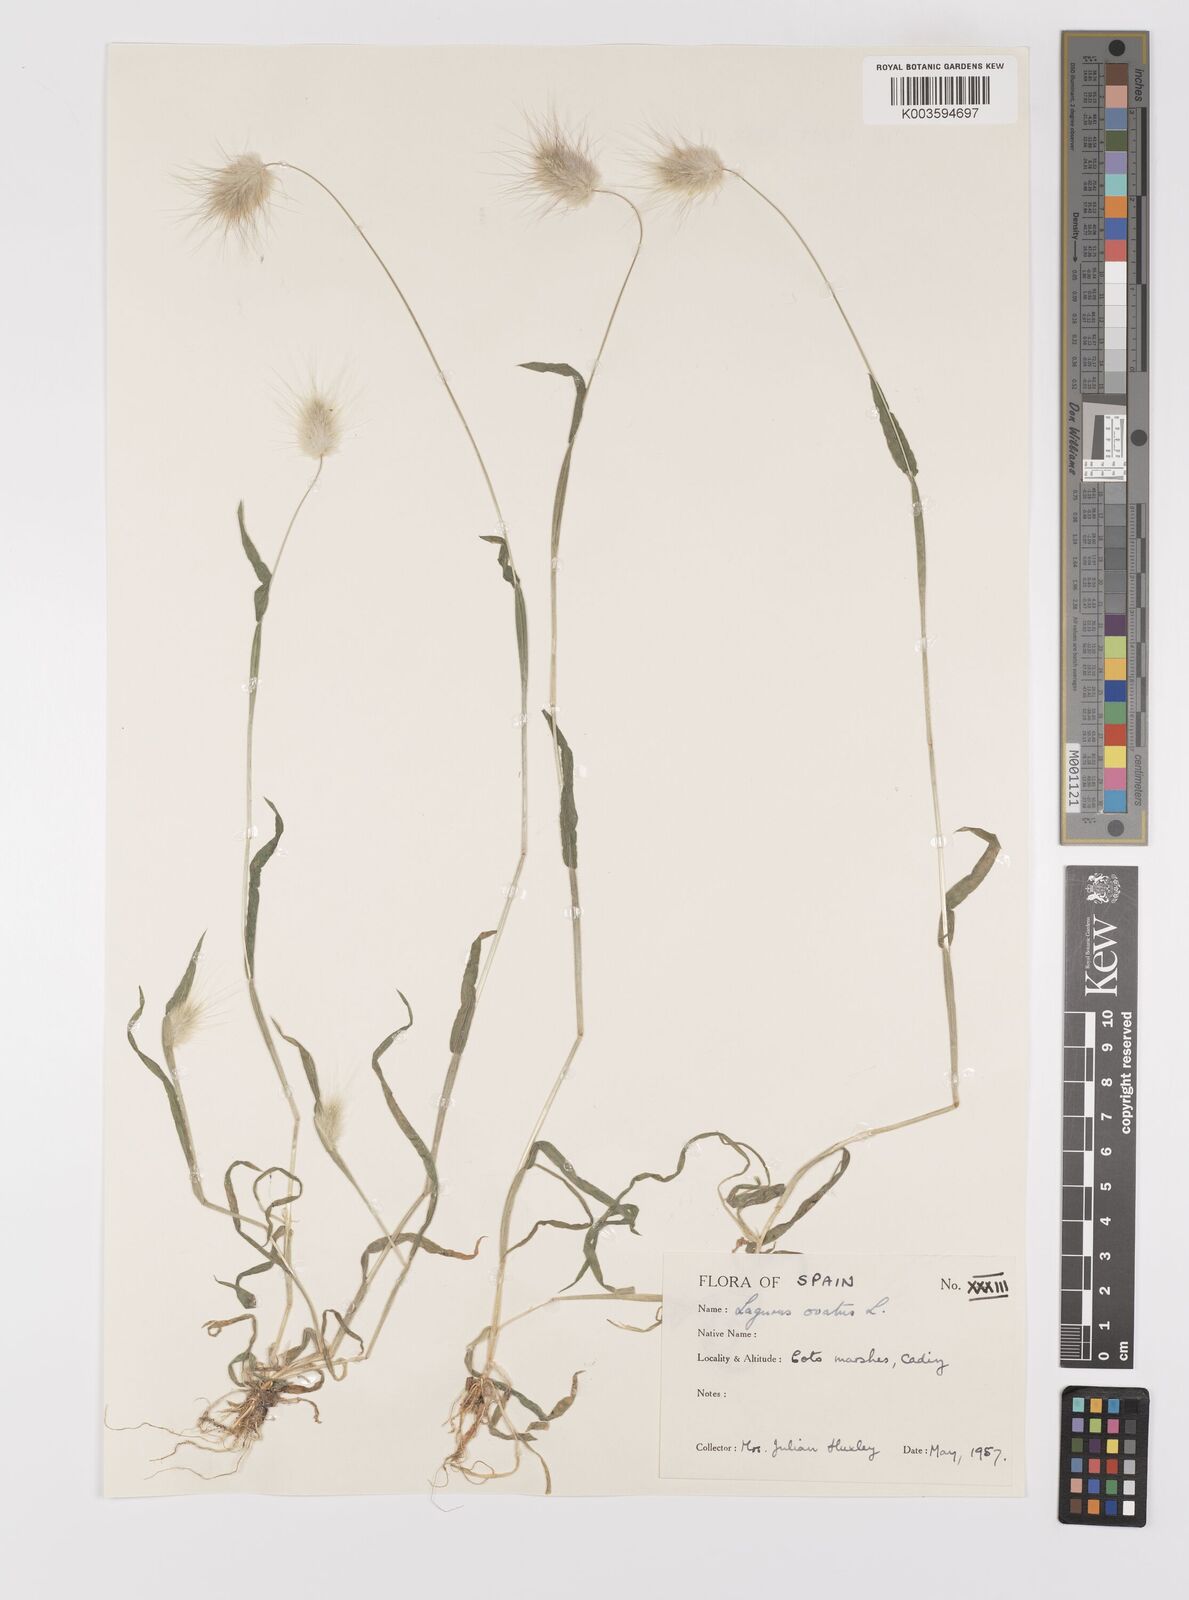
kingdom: Plantae
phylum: Tracheophyta
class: Liliopsida
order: Poales
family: Poaceae
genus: Lagurus
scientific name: Lagurus ovatus
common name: Hare's-tail
